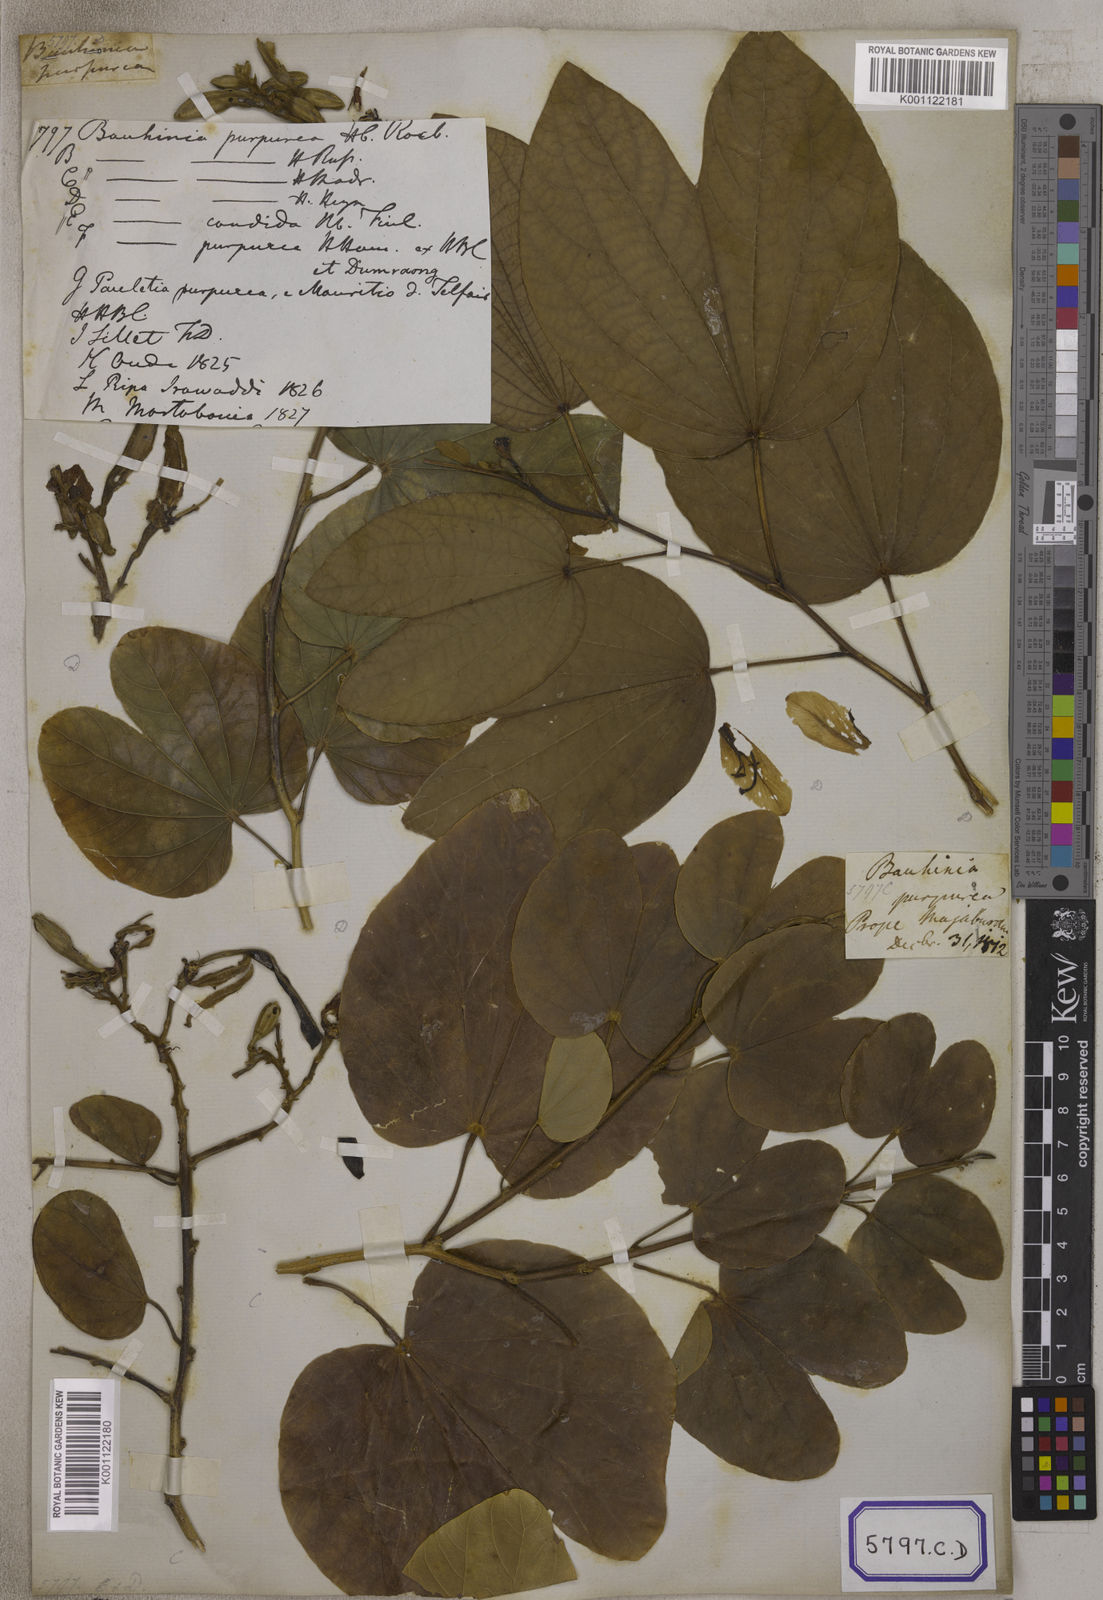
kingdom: Plantae
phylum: Tracheophyta
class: Magnoliopsida
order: Fabales
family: Fabaceae
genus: Bauhinia
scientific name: Bauhinia
